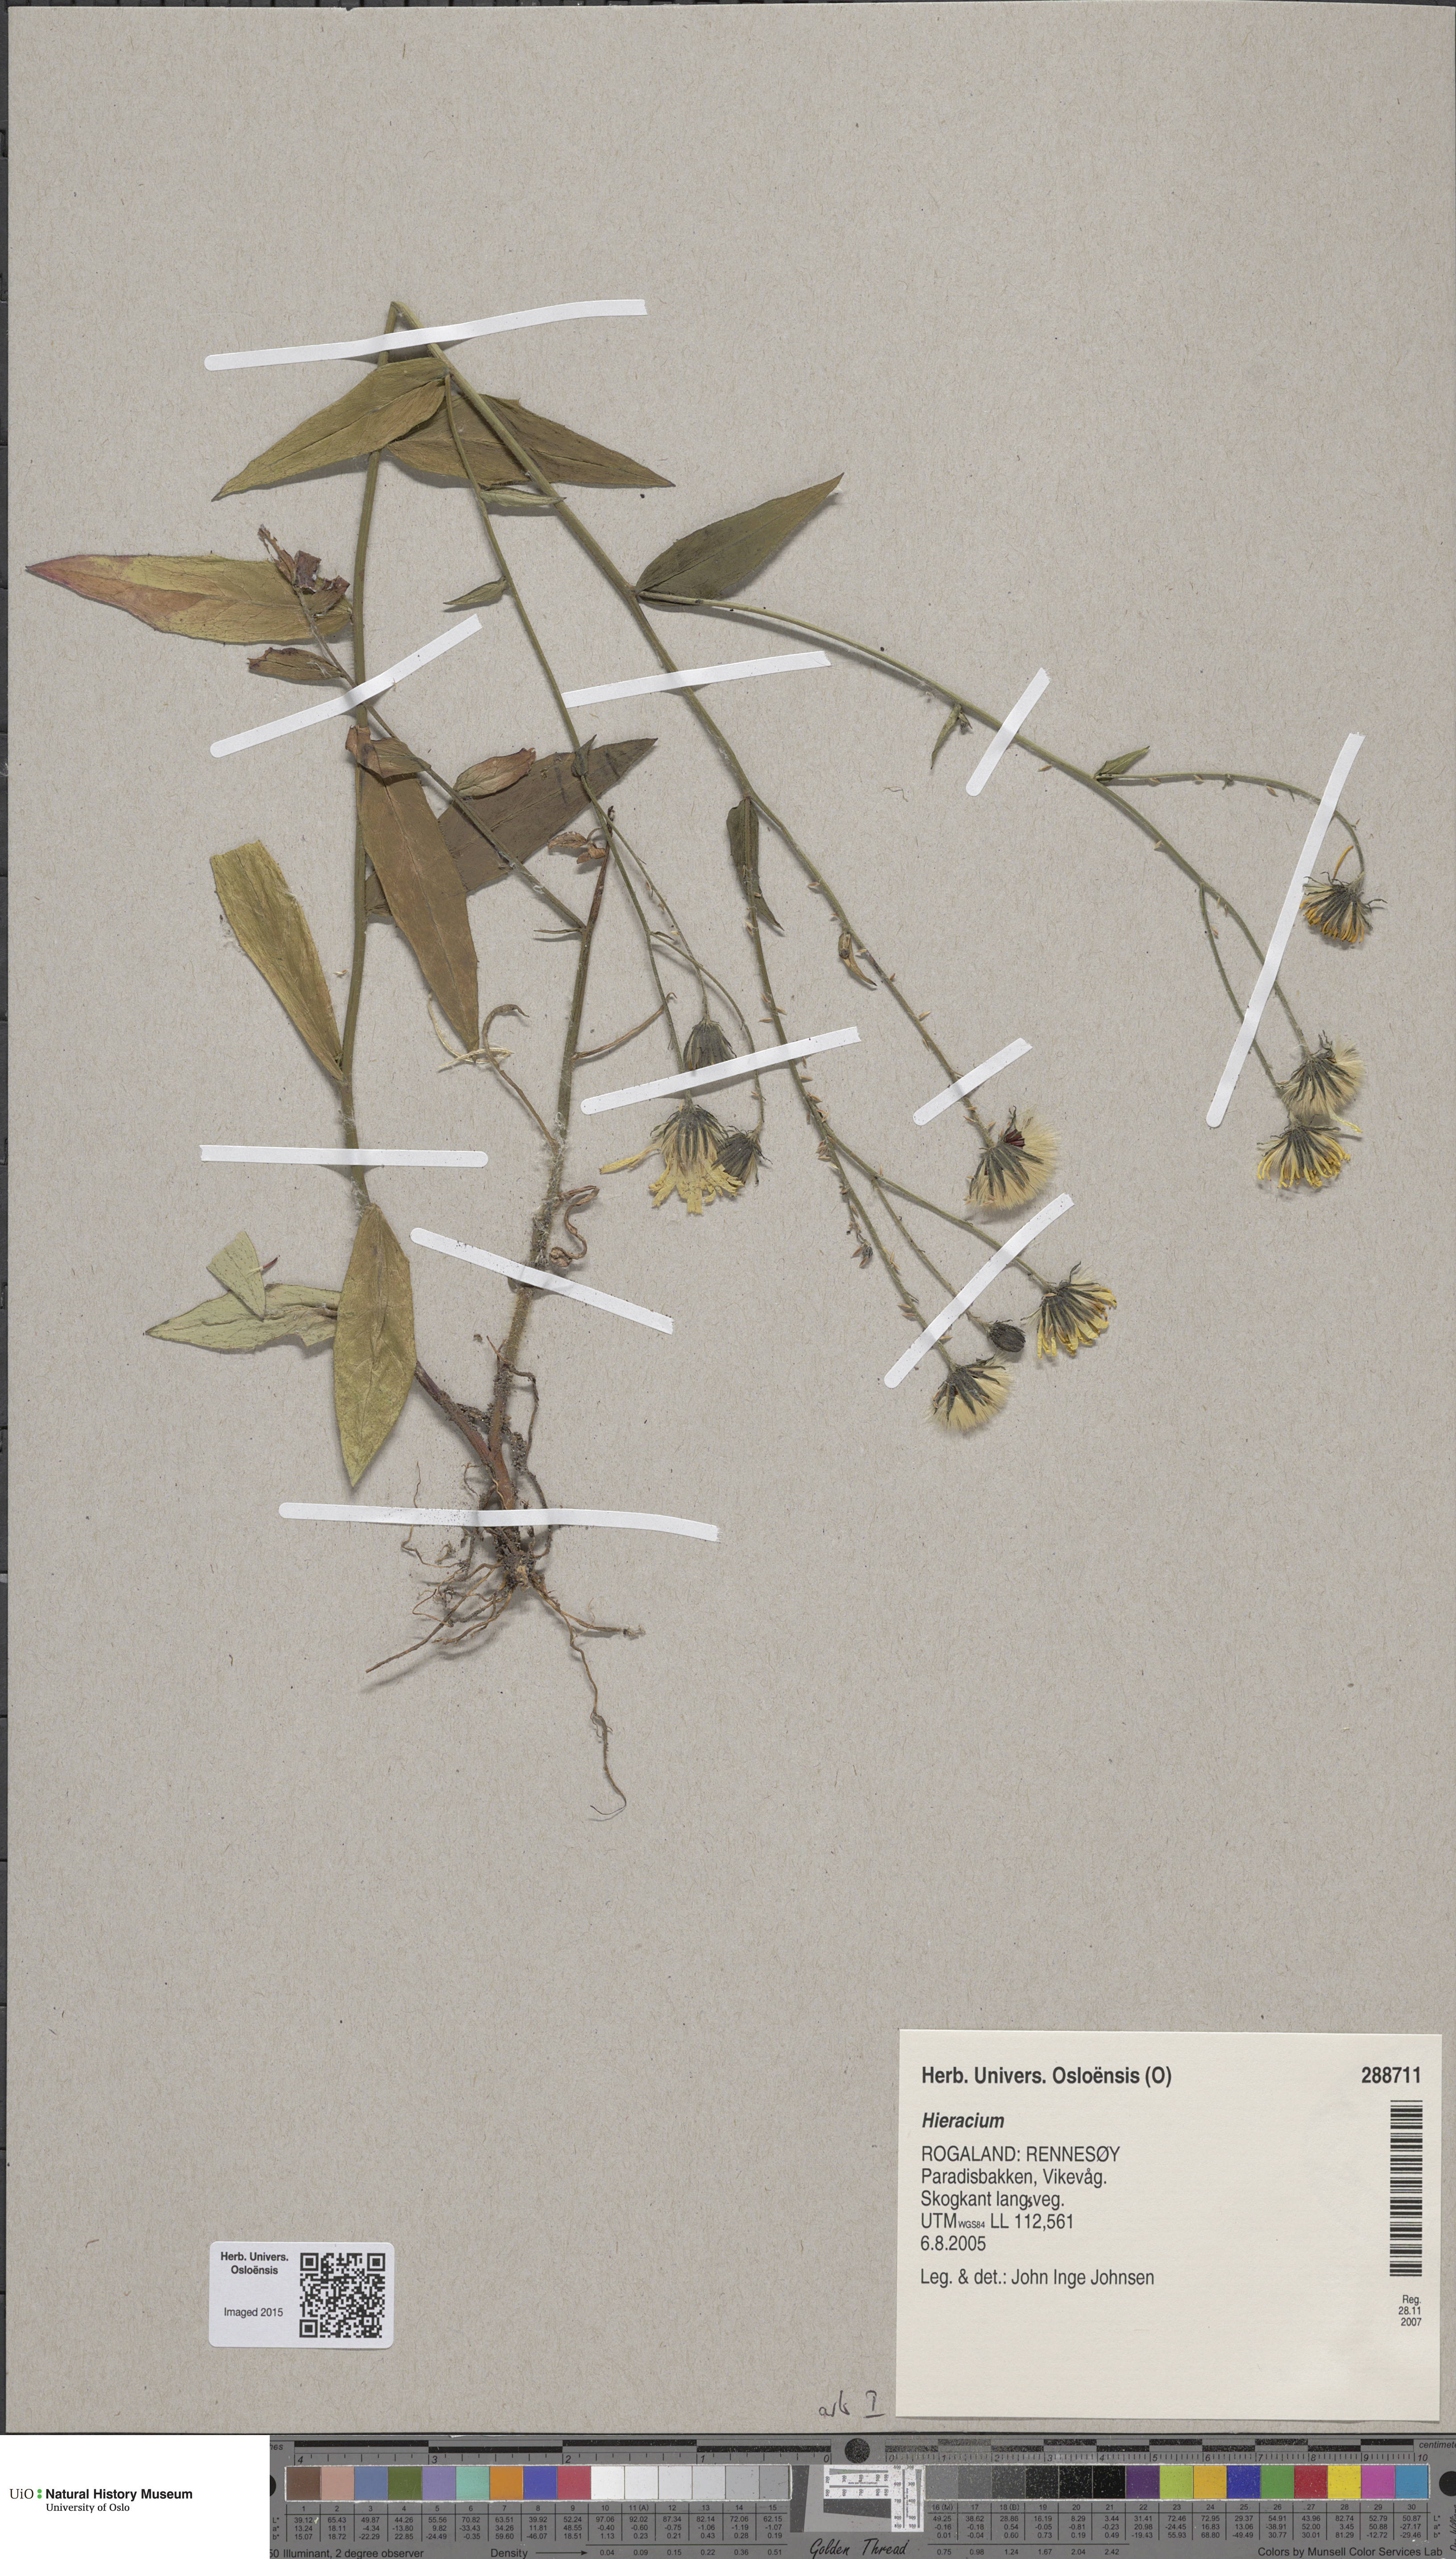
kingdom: Plantae
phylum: Tracheophyta
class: Magnoliopsida
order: Asterales
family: Asteraceae
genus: Hieracium
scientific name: Hieracium
